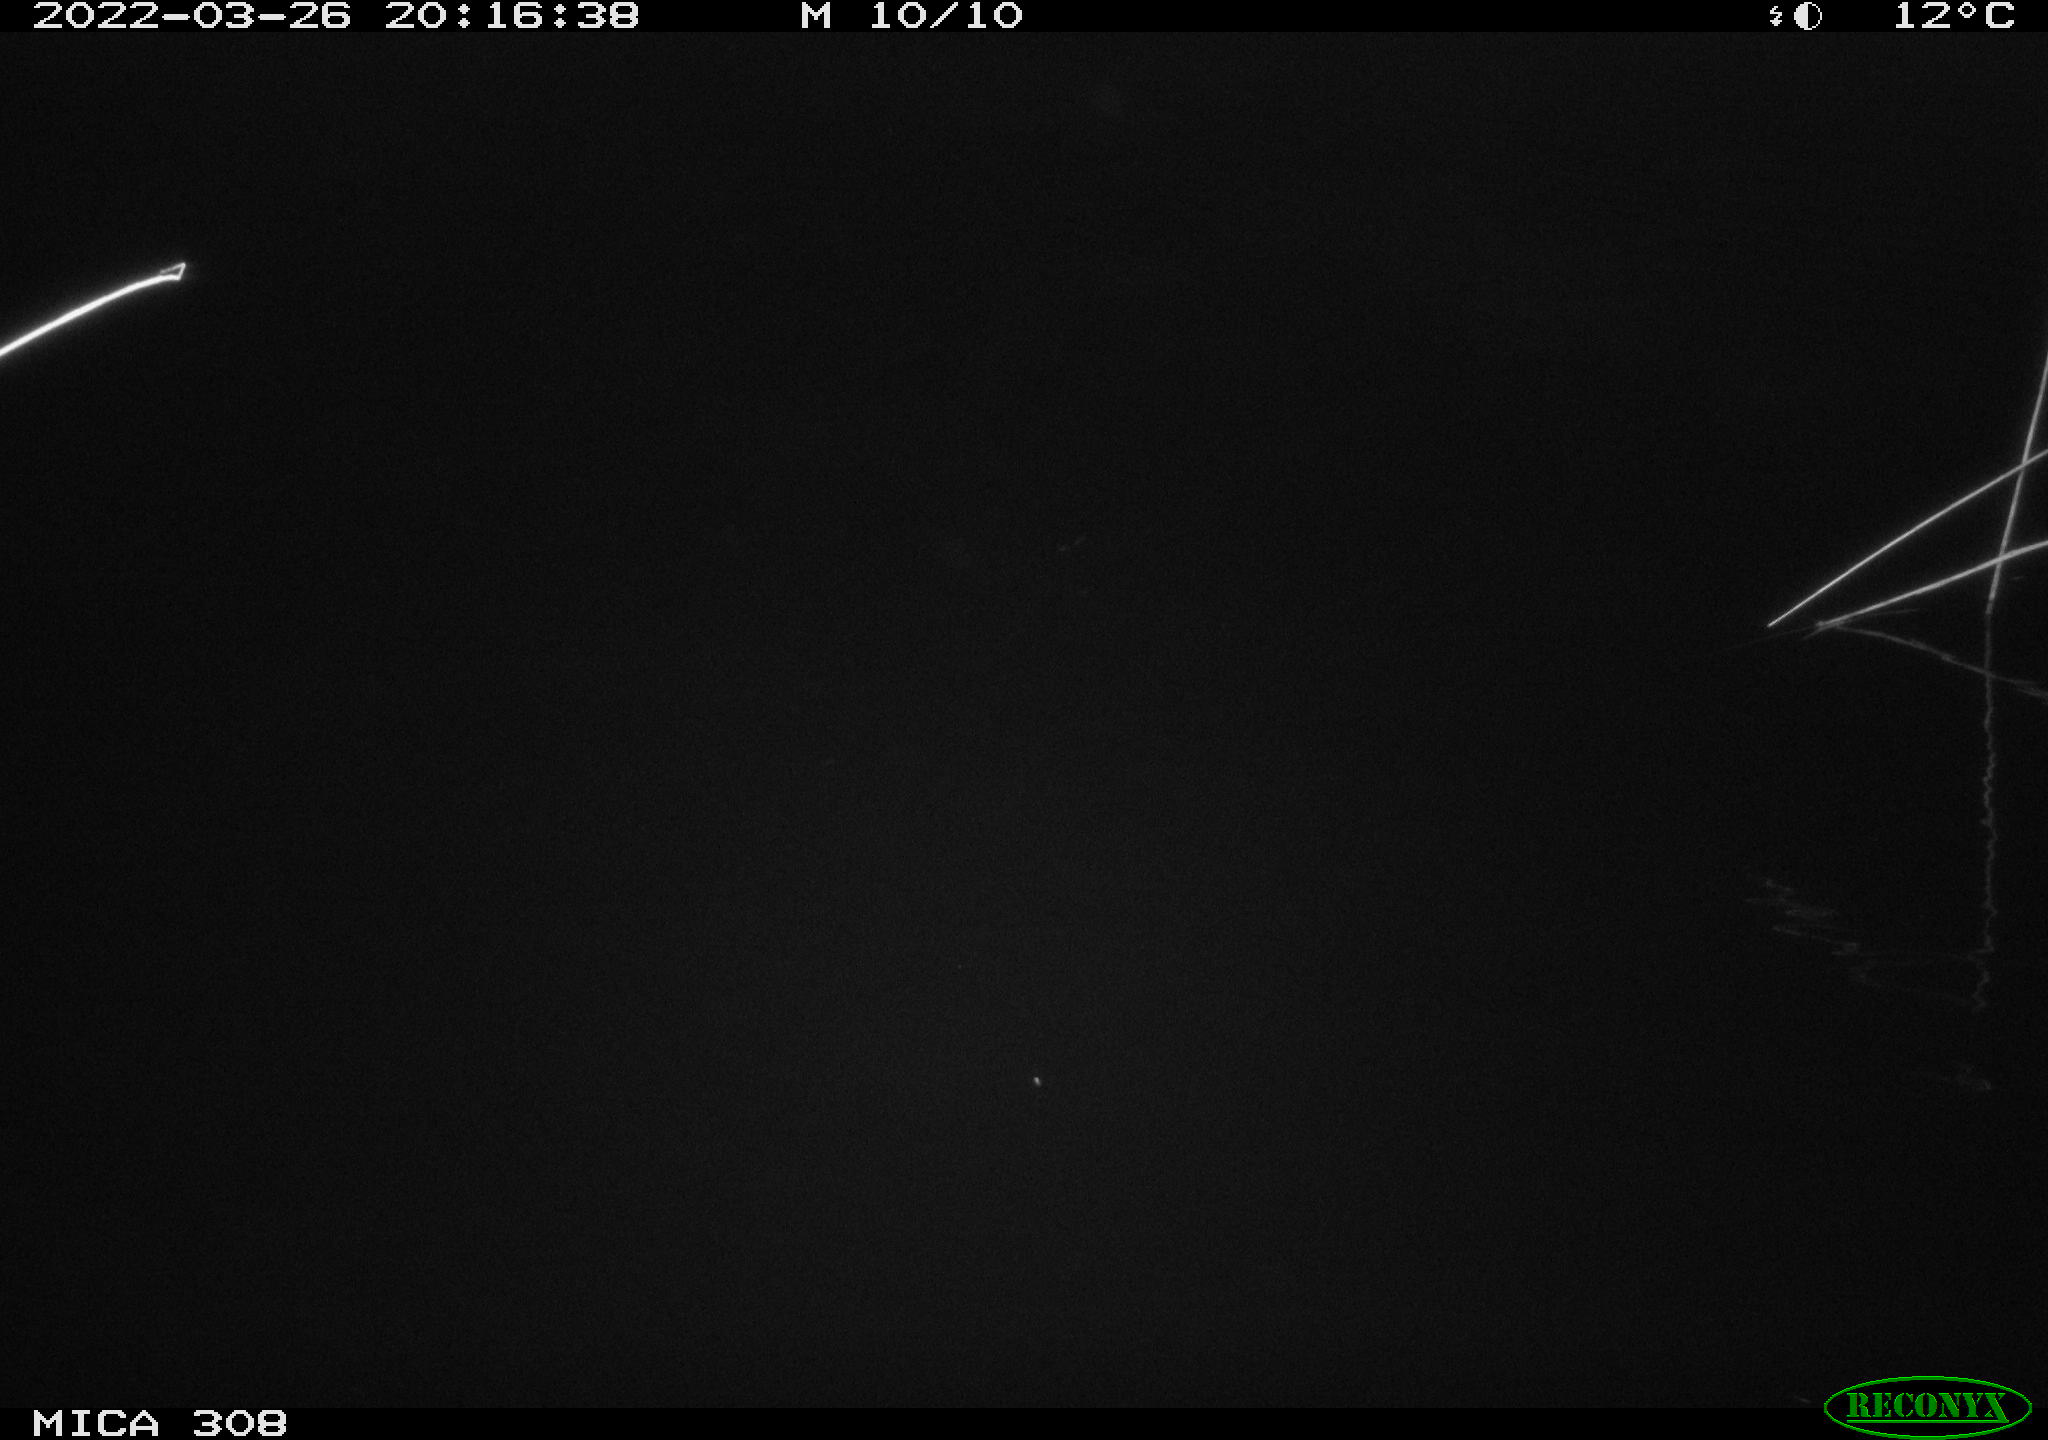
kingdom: Animalia
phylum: Chordata
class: Aves
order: Anseriformes
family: Anatidae
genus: Anas
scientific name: Anas platyrhynchos
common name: Mallard
